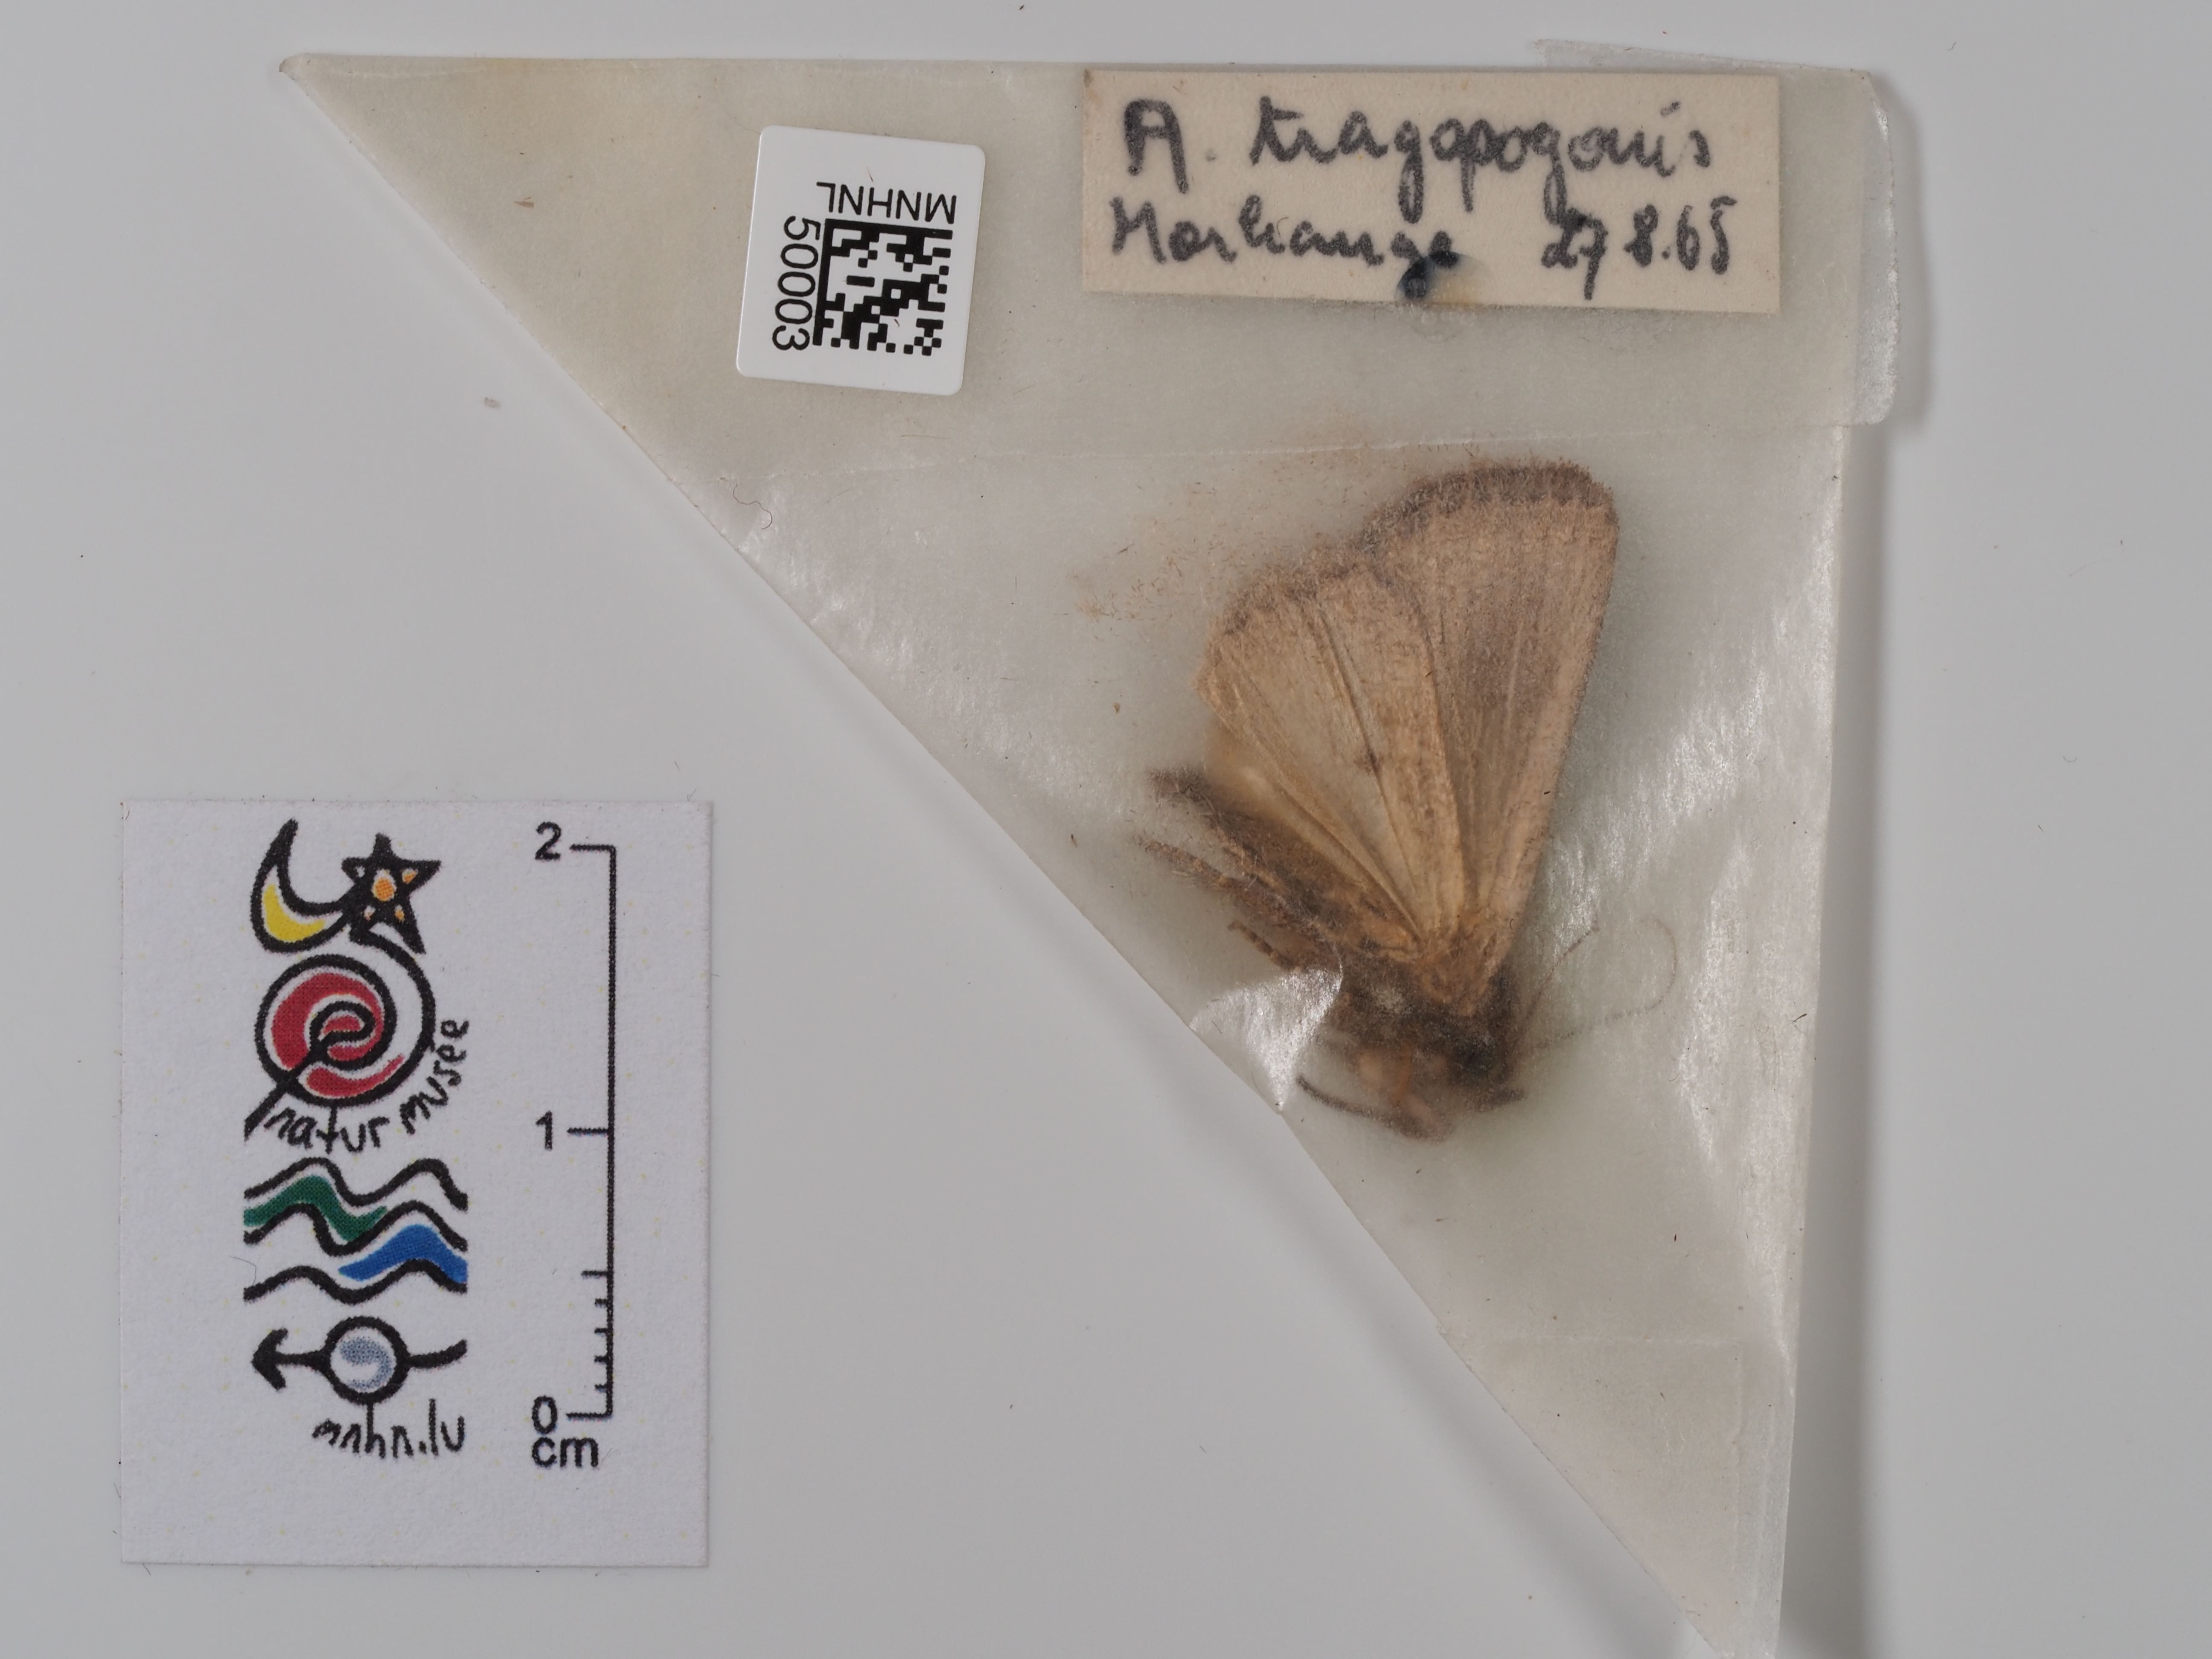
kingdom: Animalia
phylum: Arthropoda
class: Insecta
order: Lepidoptera
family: Noctuidae
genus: Amphipyra
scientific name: Amphipyra tragopoginis
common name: Mouse moth
